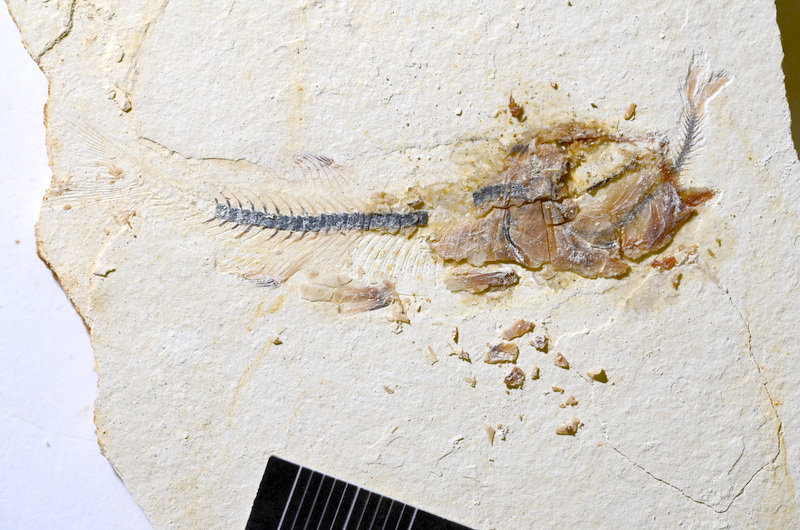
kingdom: Animalia
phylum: Chordata
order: Salmoniformes
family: Orthogonikleithridae
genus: Orthogonikleithrus
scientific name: Orthogonikleithrus hoelli
